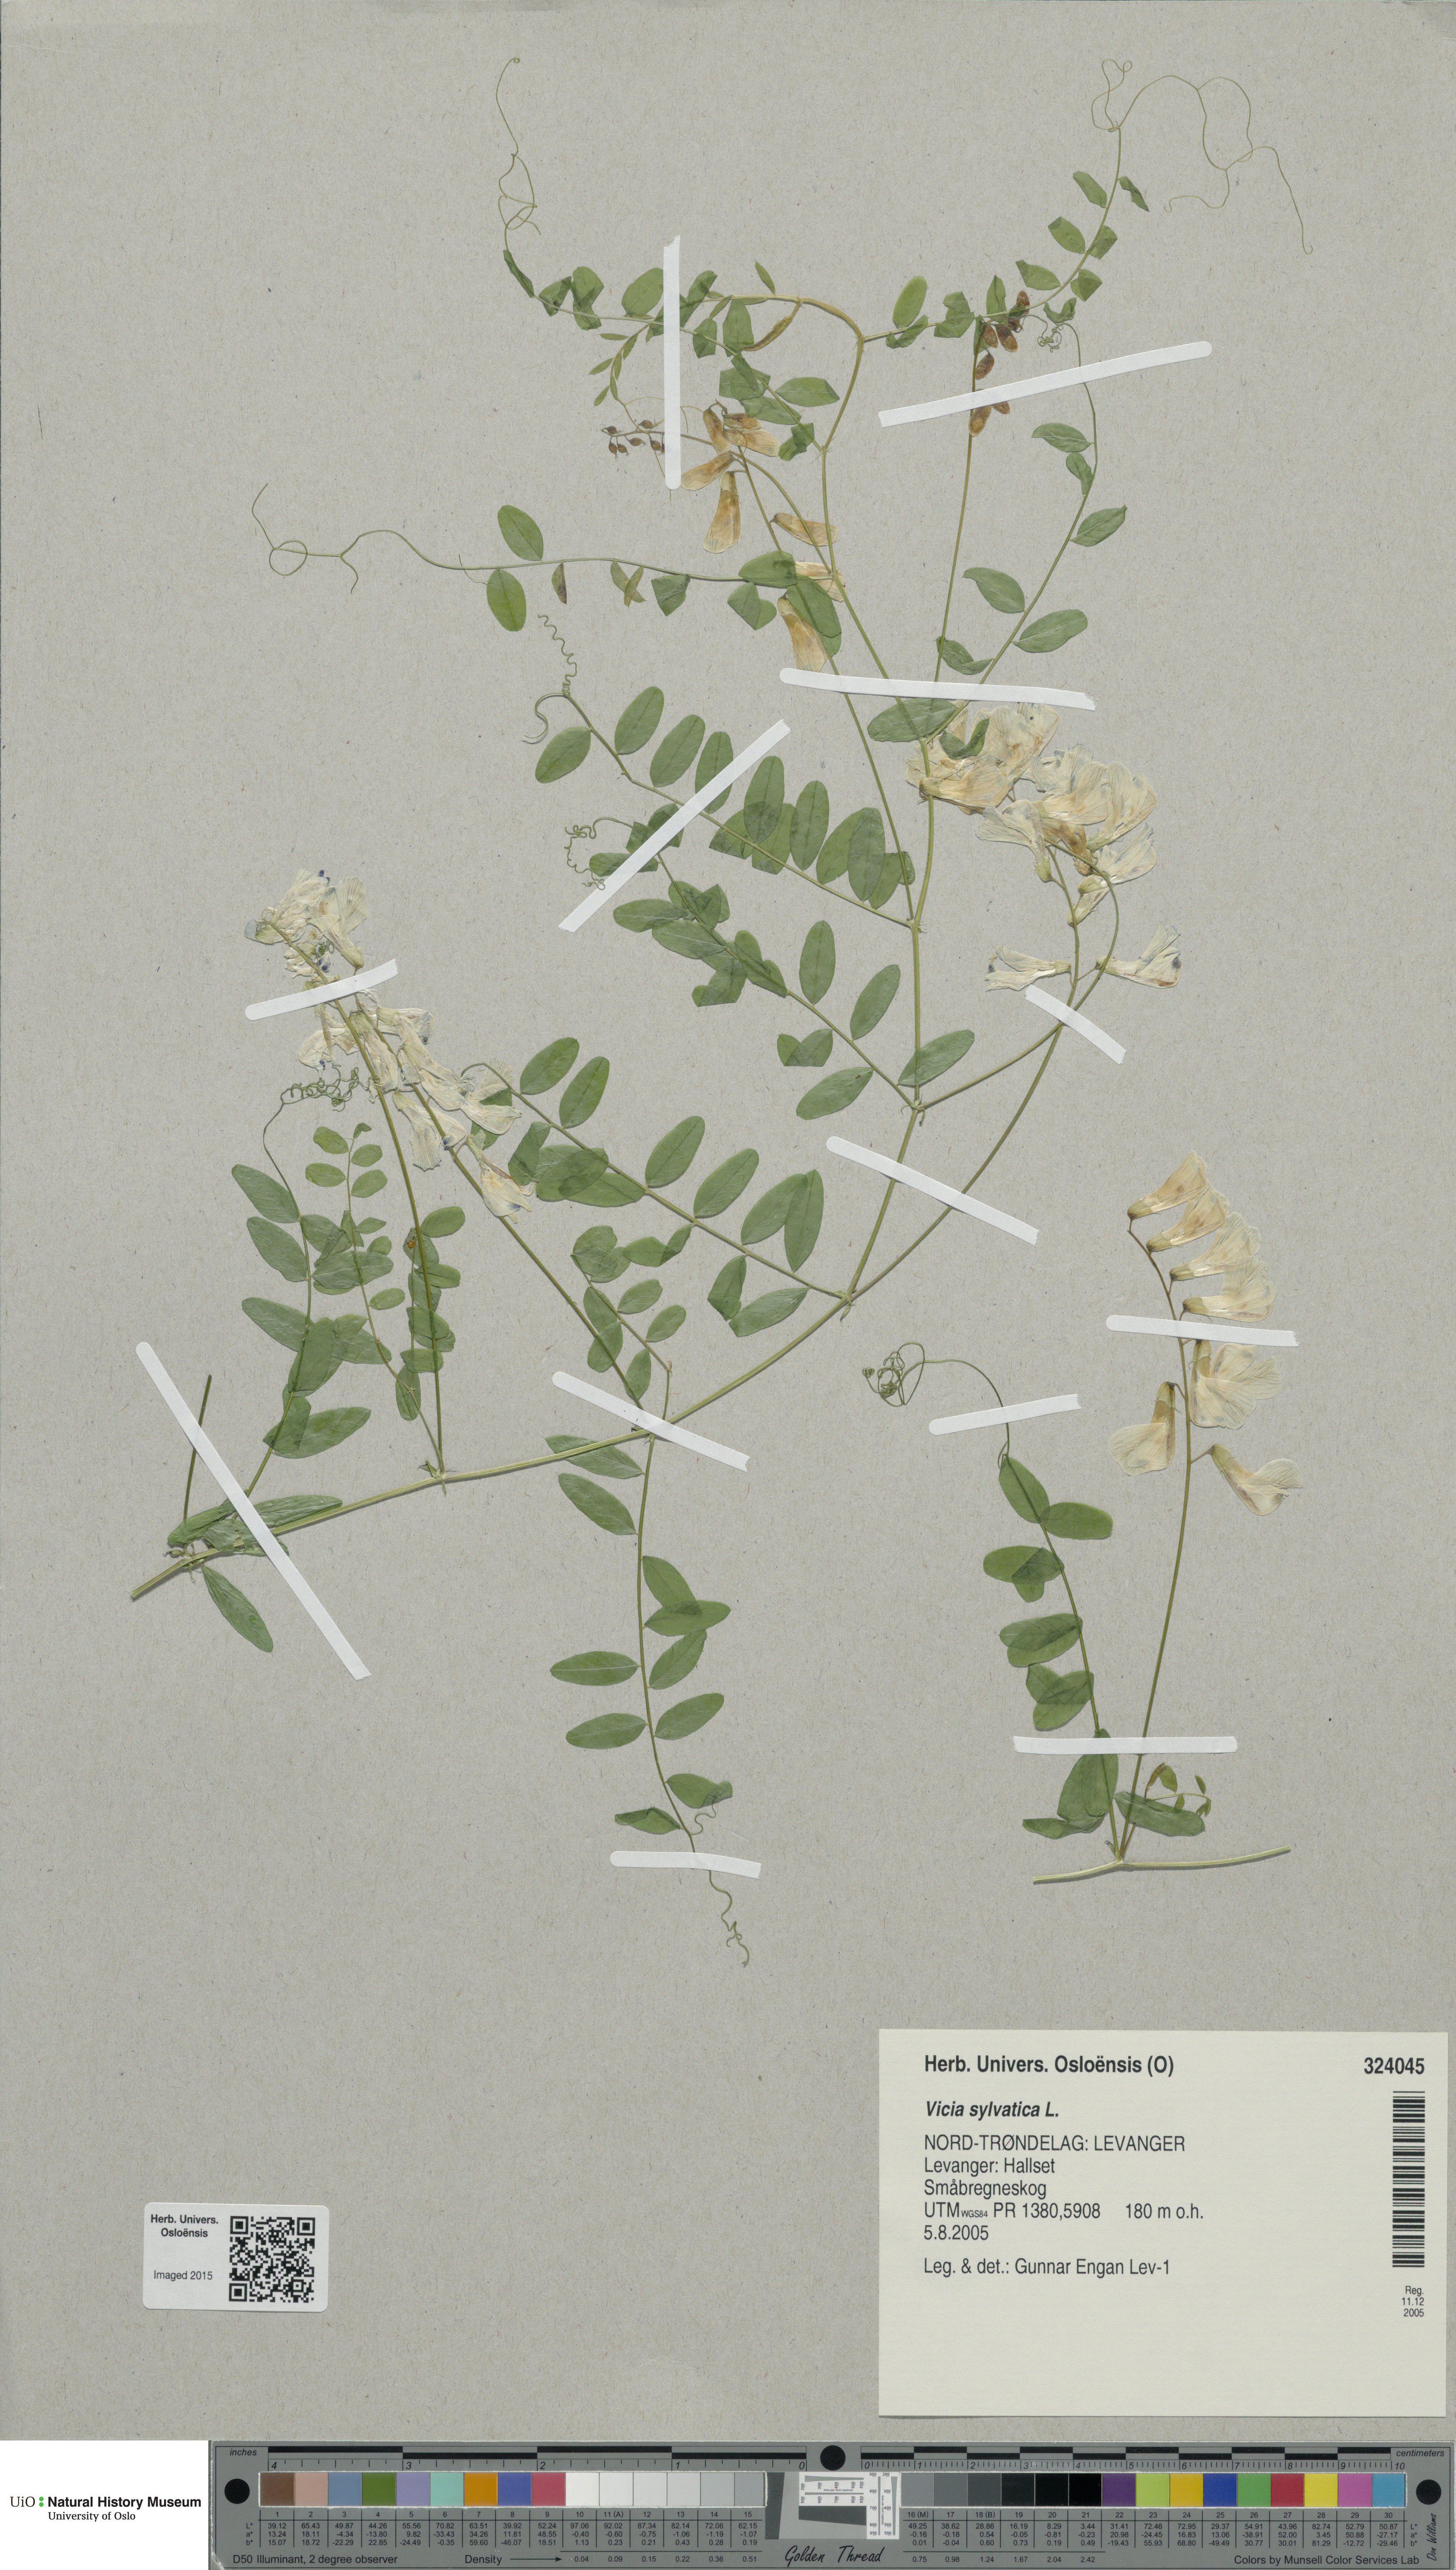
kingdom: Plantae
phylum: Tracheophyta
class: Magnoliopsida
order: Fabales
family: Fabaceae
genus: Vicia
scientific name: Vicia sylvatica
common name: Wood vetch
